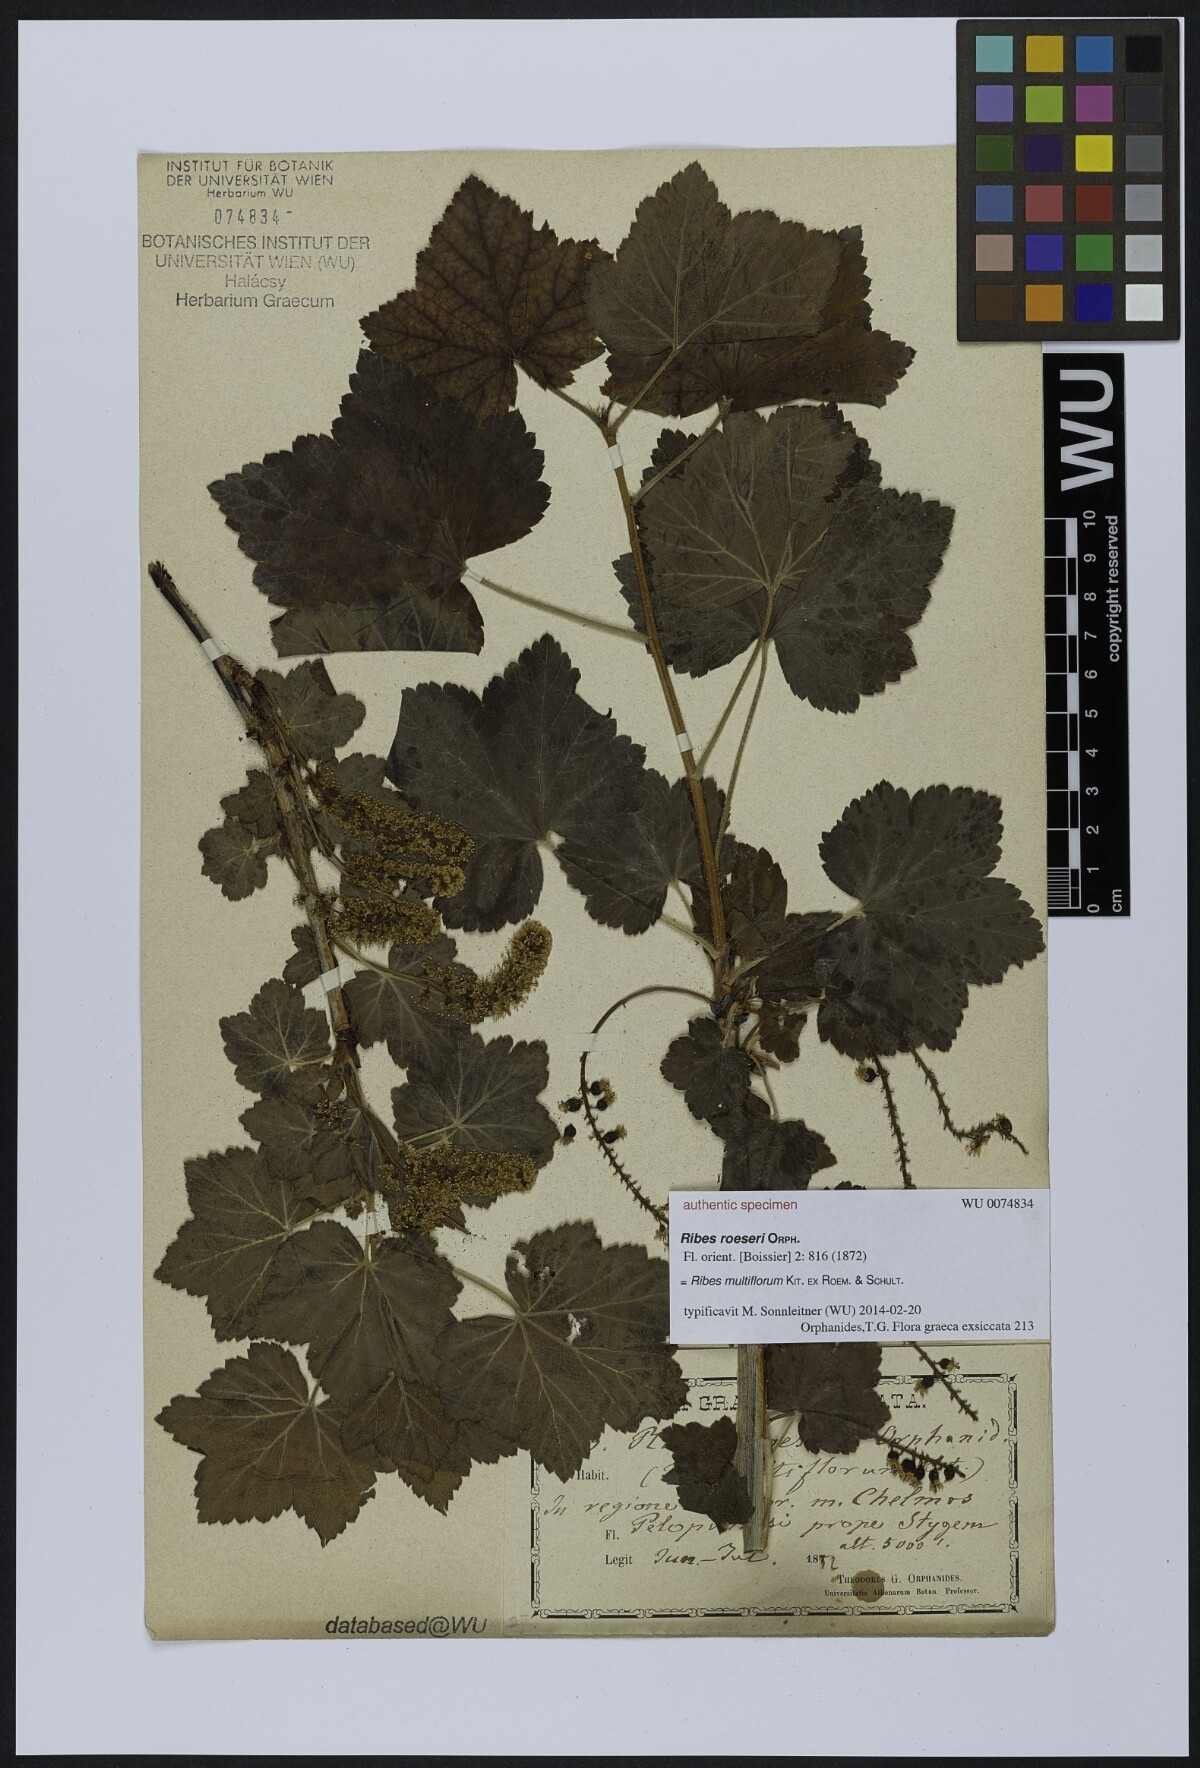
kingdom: Plantae
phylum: Tracheophyta
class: Magnoliopsida
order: Saxifragales
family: Grossulariaceae
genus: Ribes
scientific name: Ribes multiflorum
